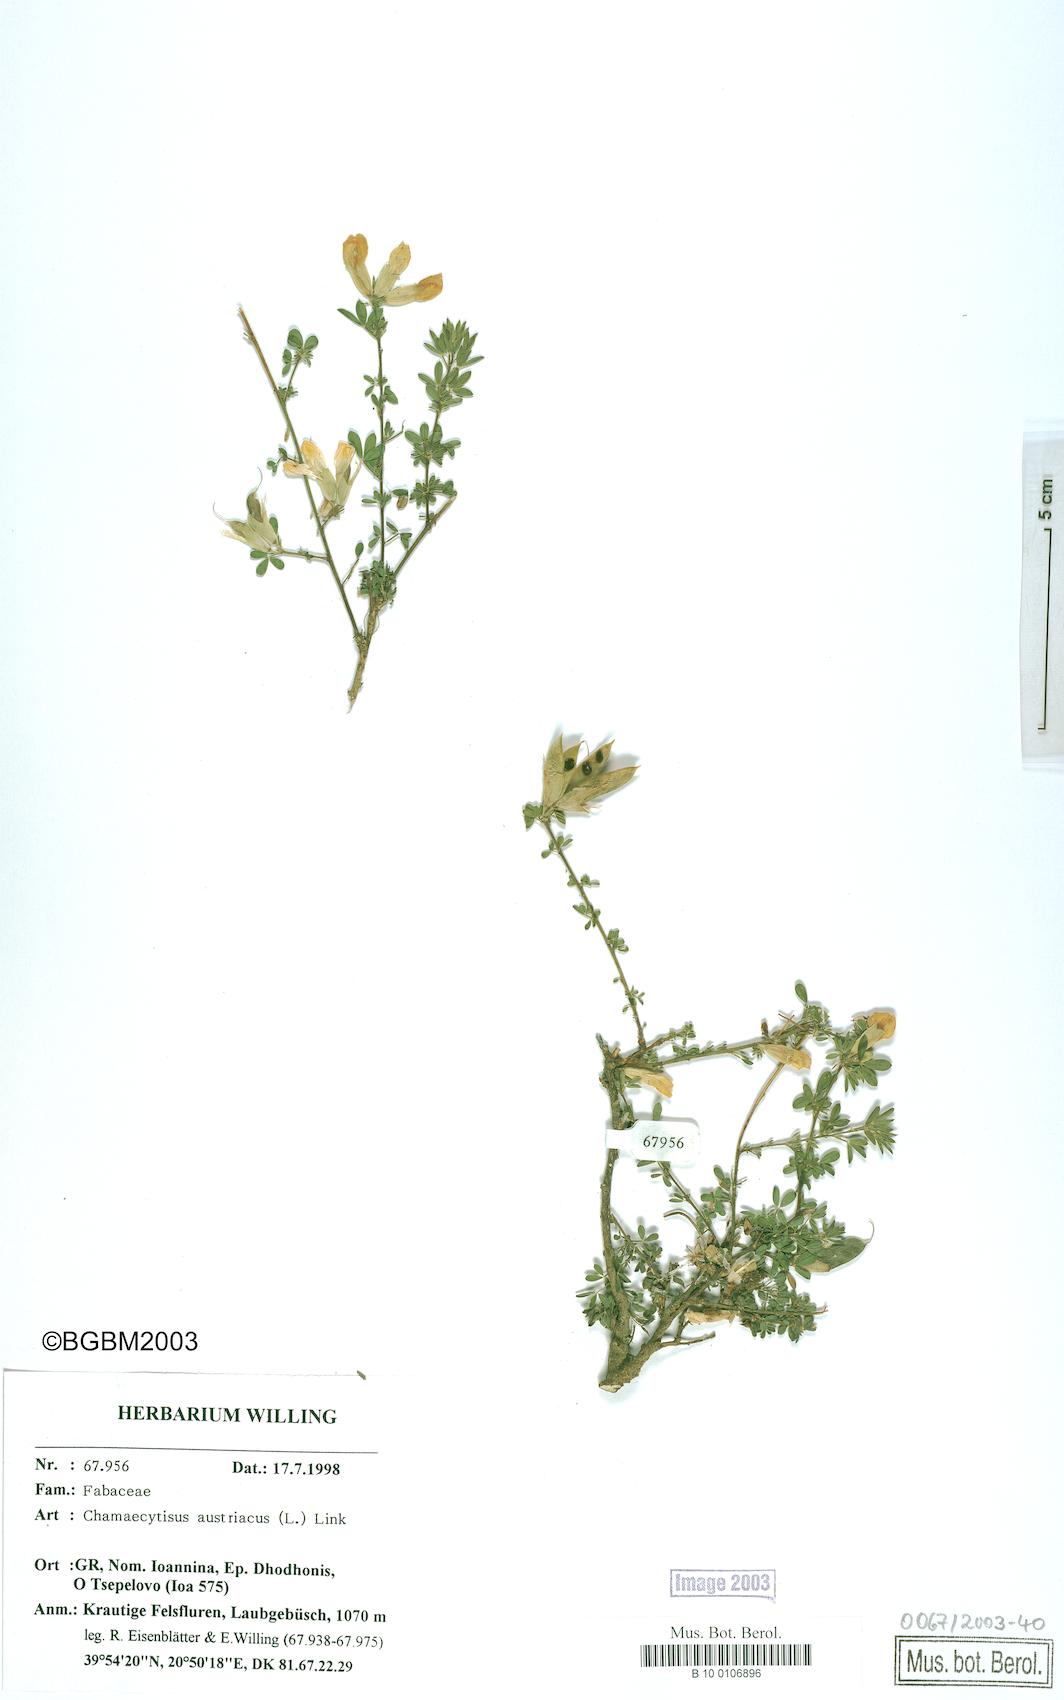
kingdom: Plantae
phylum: Tracheophyta
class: Magnoliopsida
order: Fabales
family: Fabaceae
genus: Chamaecytisus
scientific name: Chamaecytisus austriacus
